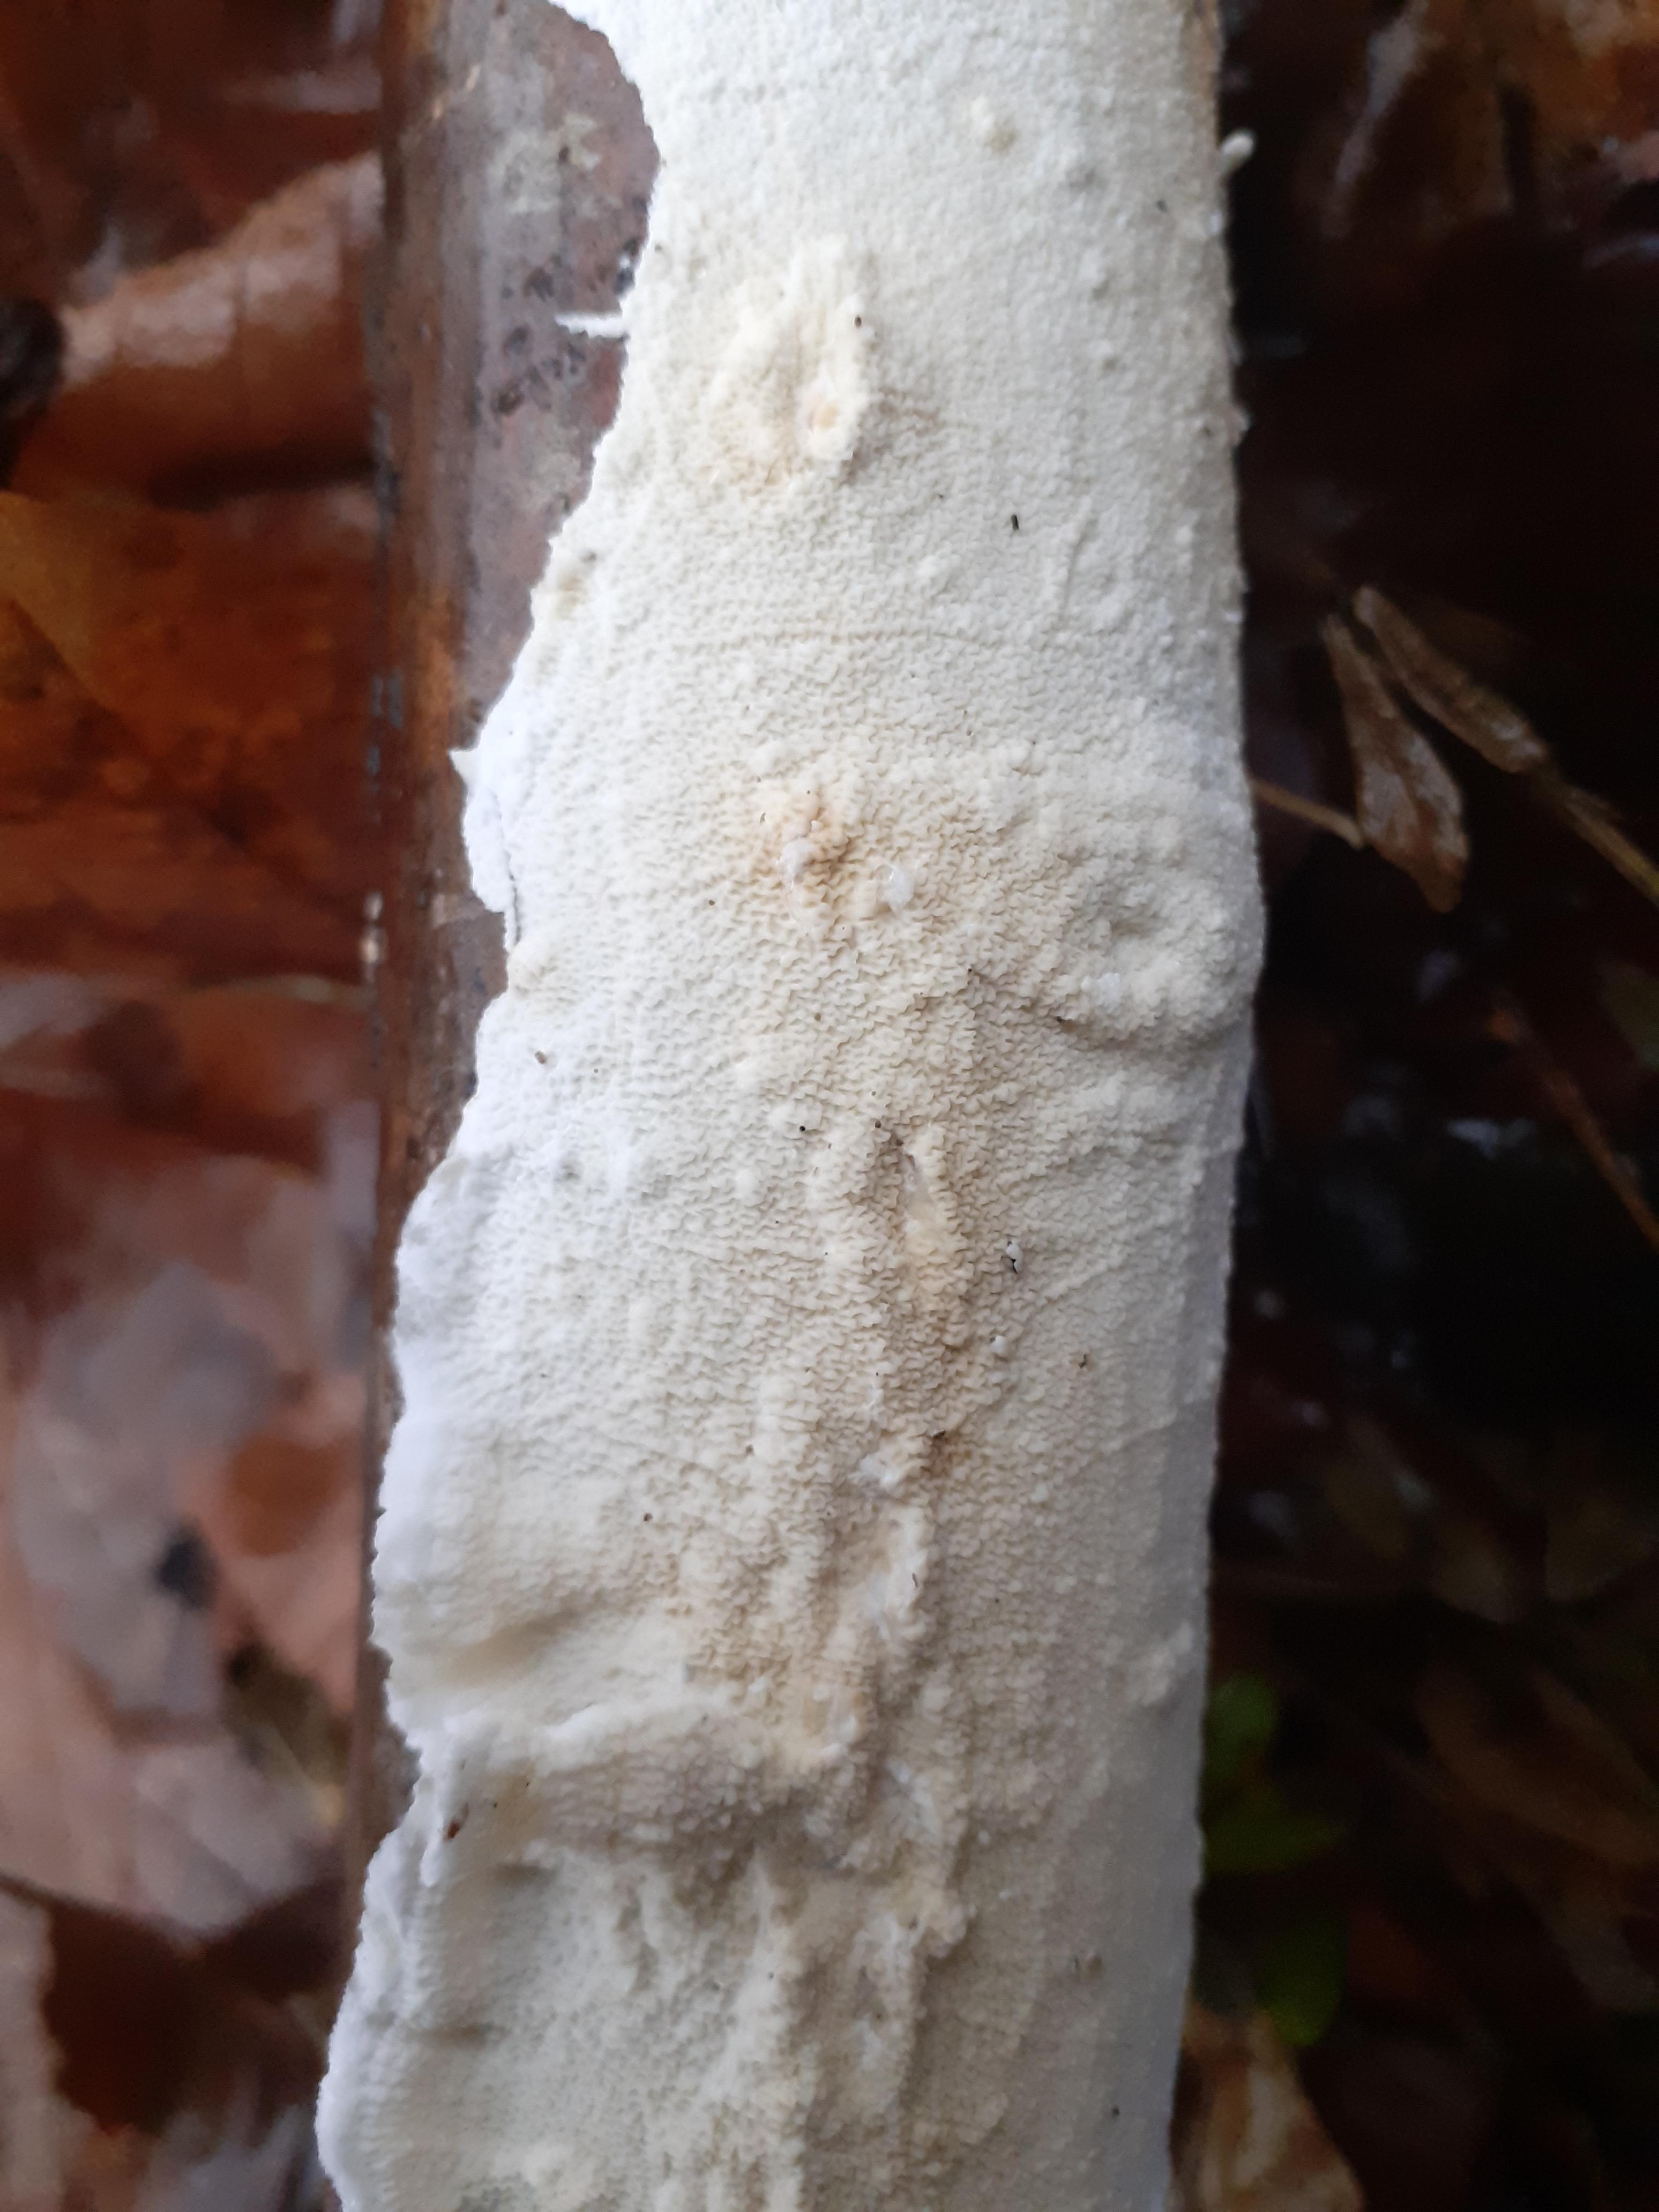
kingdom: Fungi
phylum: Basidiomycota
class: Agaricomycetes
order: Polyporales
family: Irpicaceae
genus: Byssomerulius
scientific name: Byssomerulius corium
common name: læder-åresvamp
